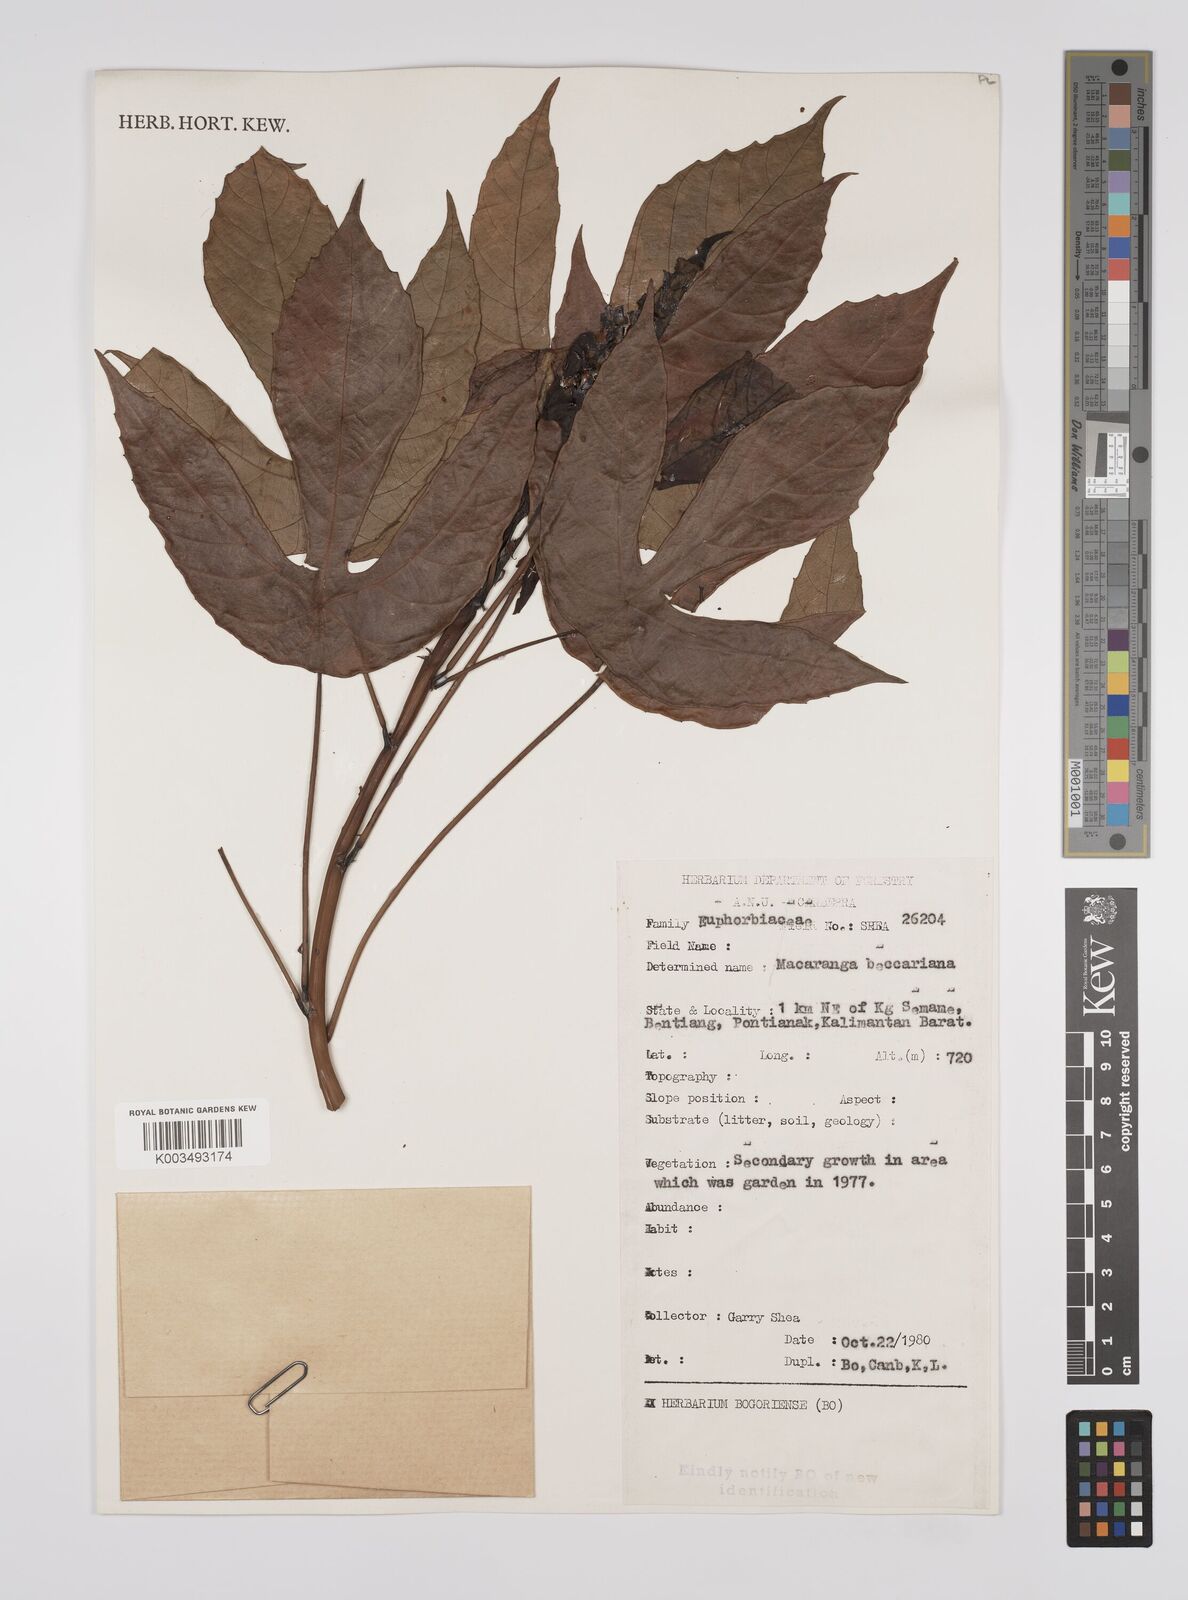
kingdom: Plantae
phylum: Tracheophyta
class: Magnoliopsida
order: Malpighiales
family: Euphorbiaceae
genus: Macaranga
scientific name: Macaranga beccariana
